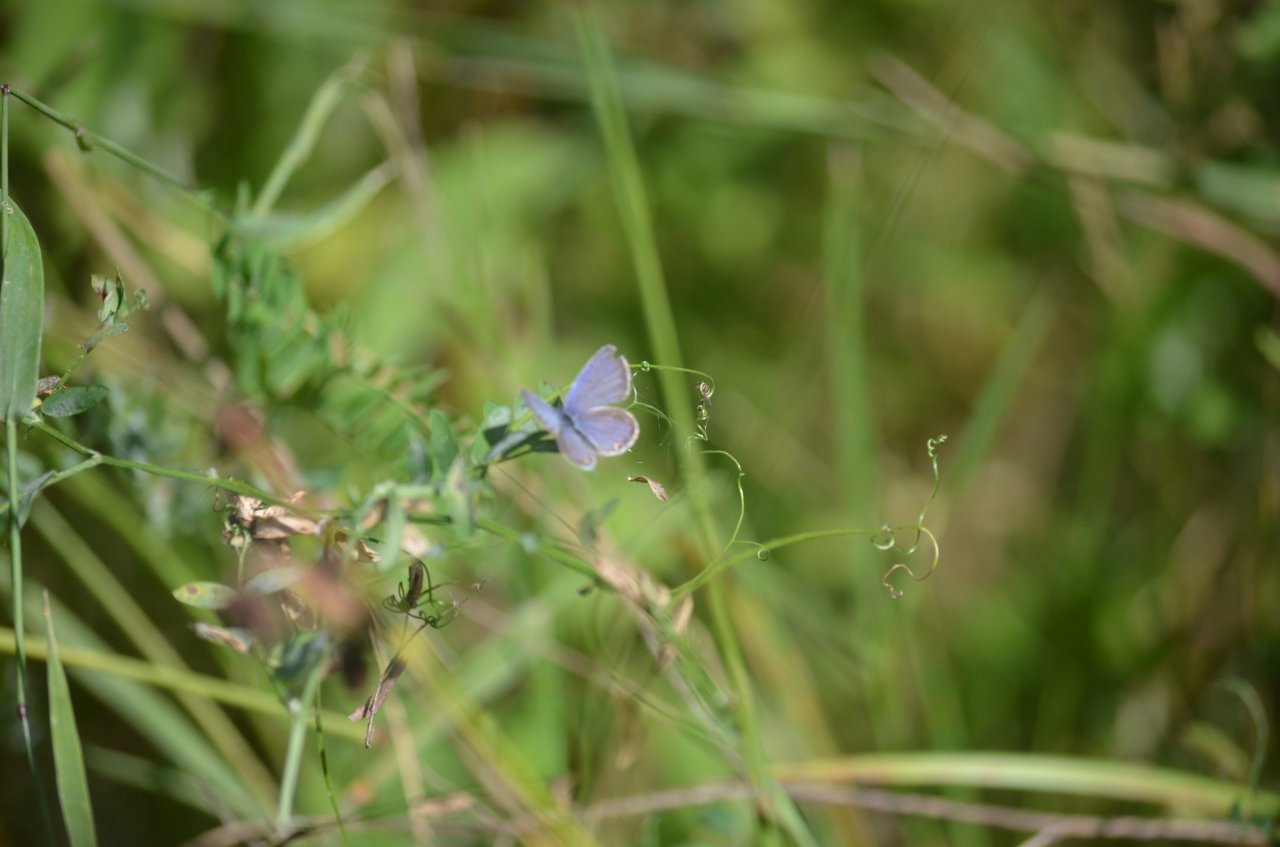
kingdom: Animalia
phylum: Arthropoda
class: Insecta
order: Lepidoptera
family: Lycaenidae
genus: Elkalyce
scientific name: Elkalyce comyntas
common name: Eastern Tailed-Blue
